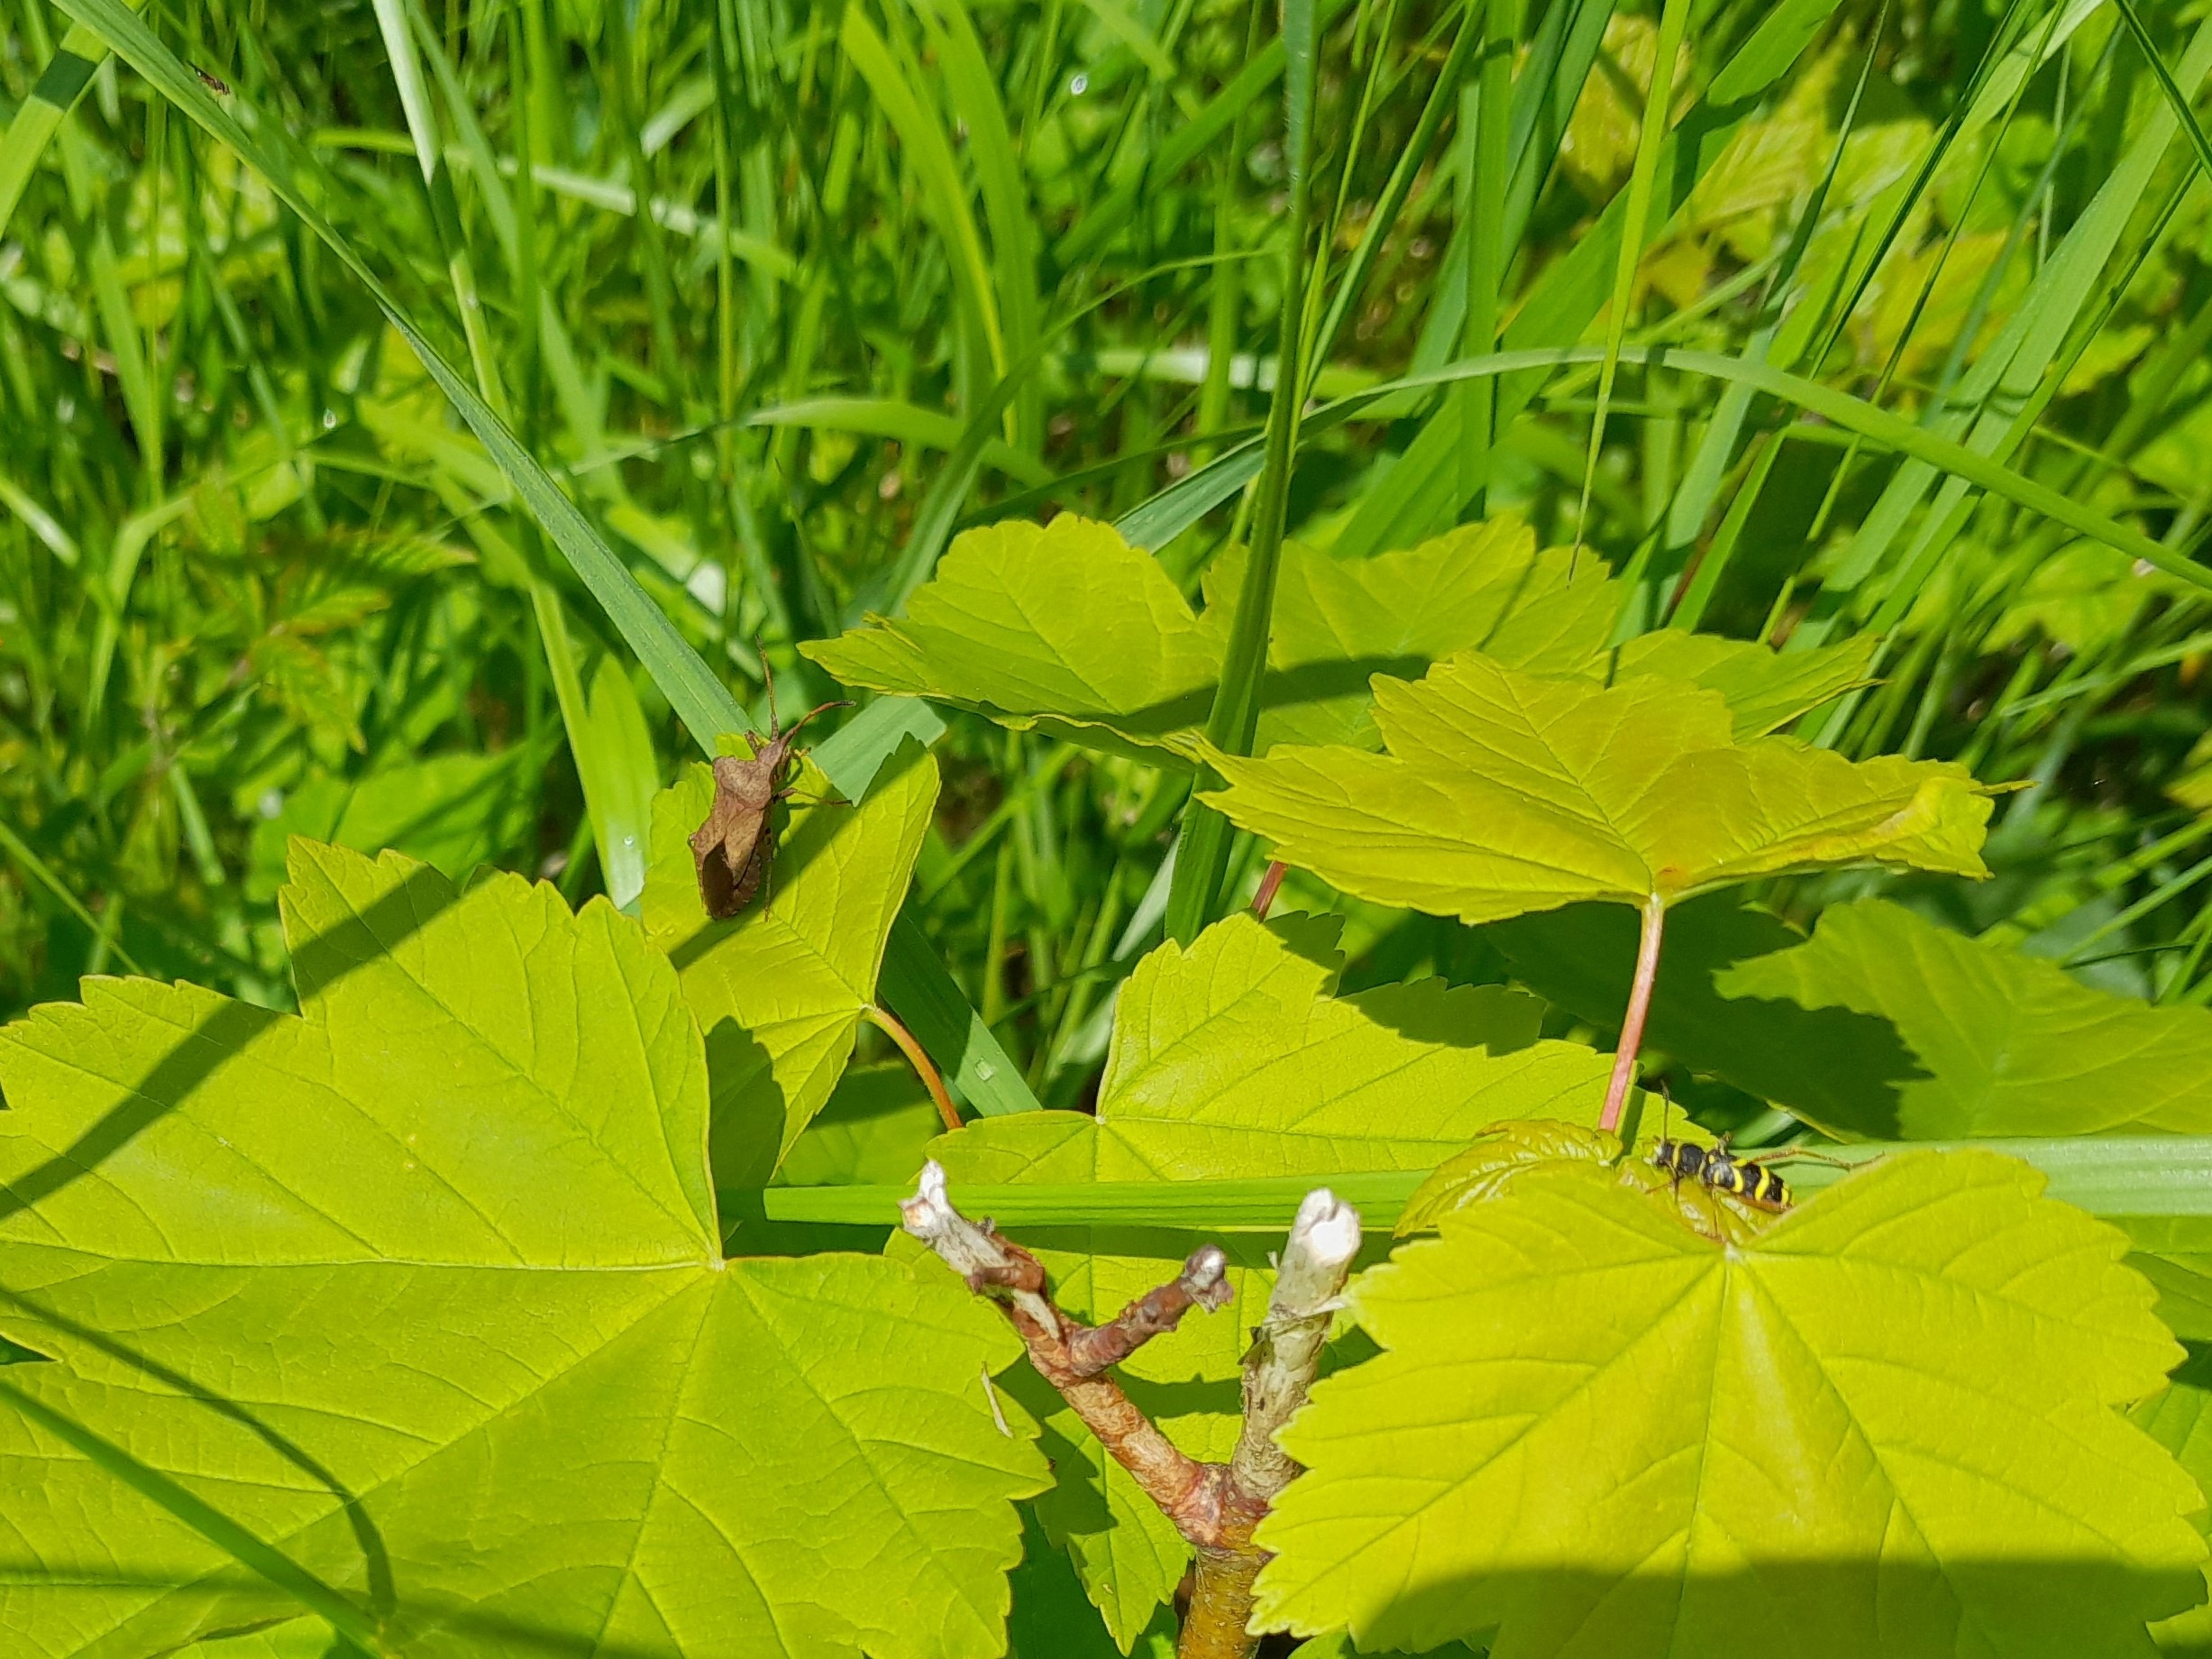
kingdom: Animalia
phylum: Arthropoda
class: Insecta
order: Coleoptera
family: Cerambycidae
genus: Clytus
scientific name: Clytus arietis
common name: Lille hvepsebuk
